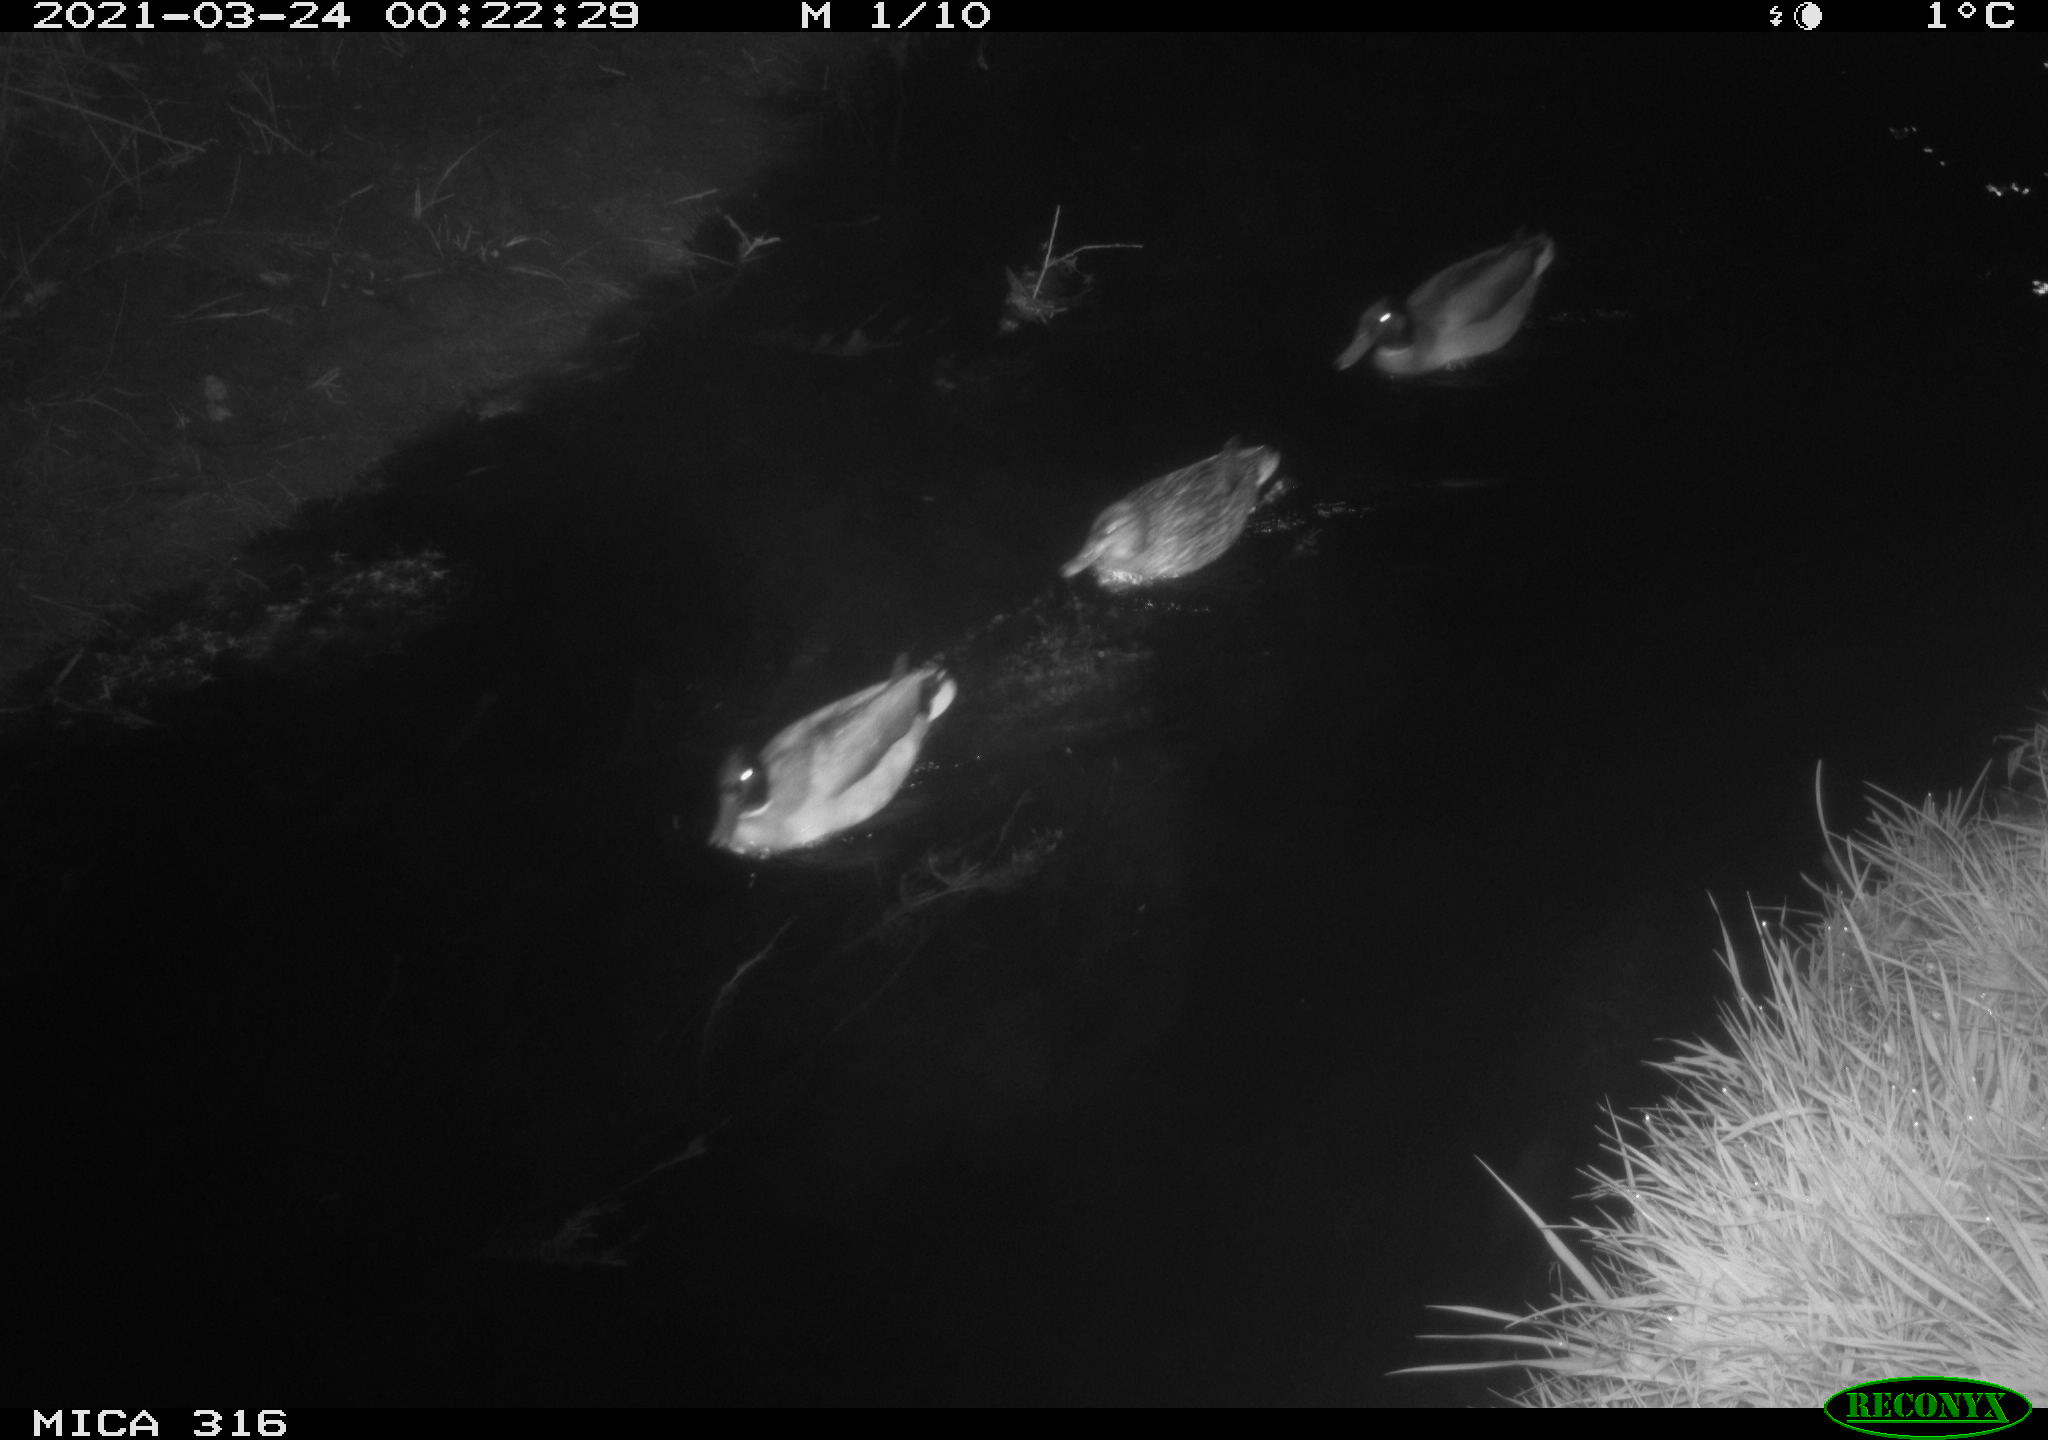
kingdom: Animalia
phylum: Chordata
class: Aves
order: Anseriformes
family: Anatidae
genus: Anas
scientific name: Anas platyrhynchos
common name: Mallard
